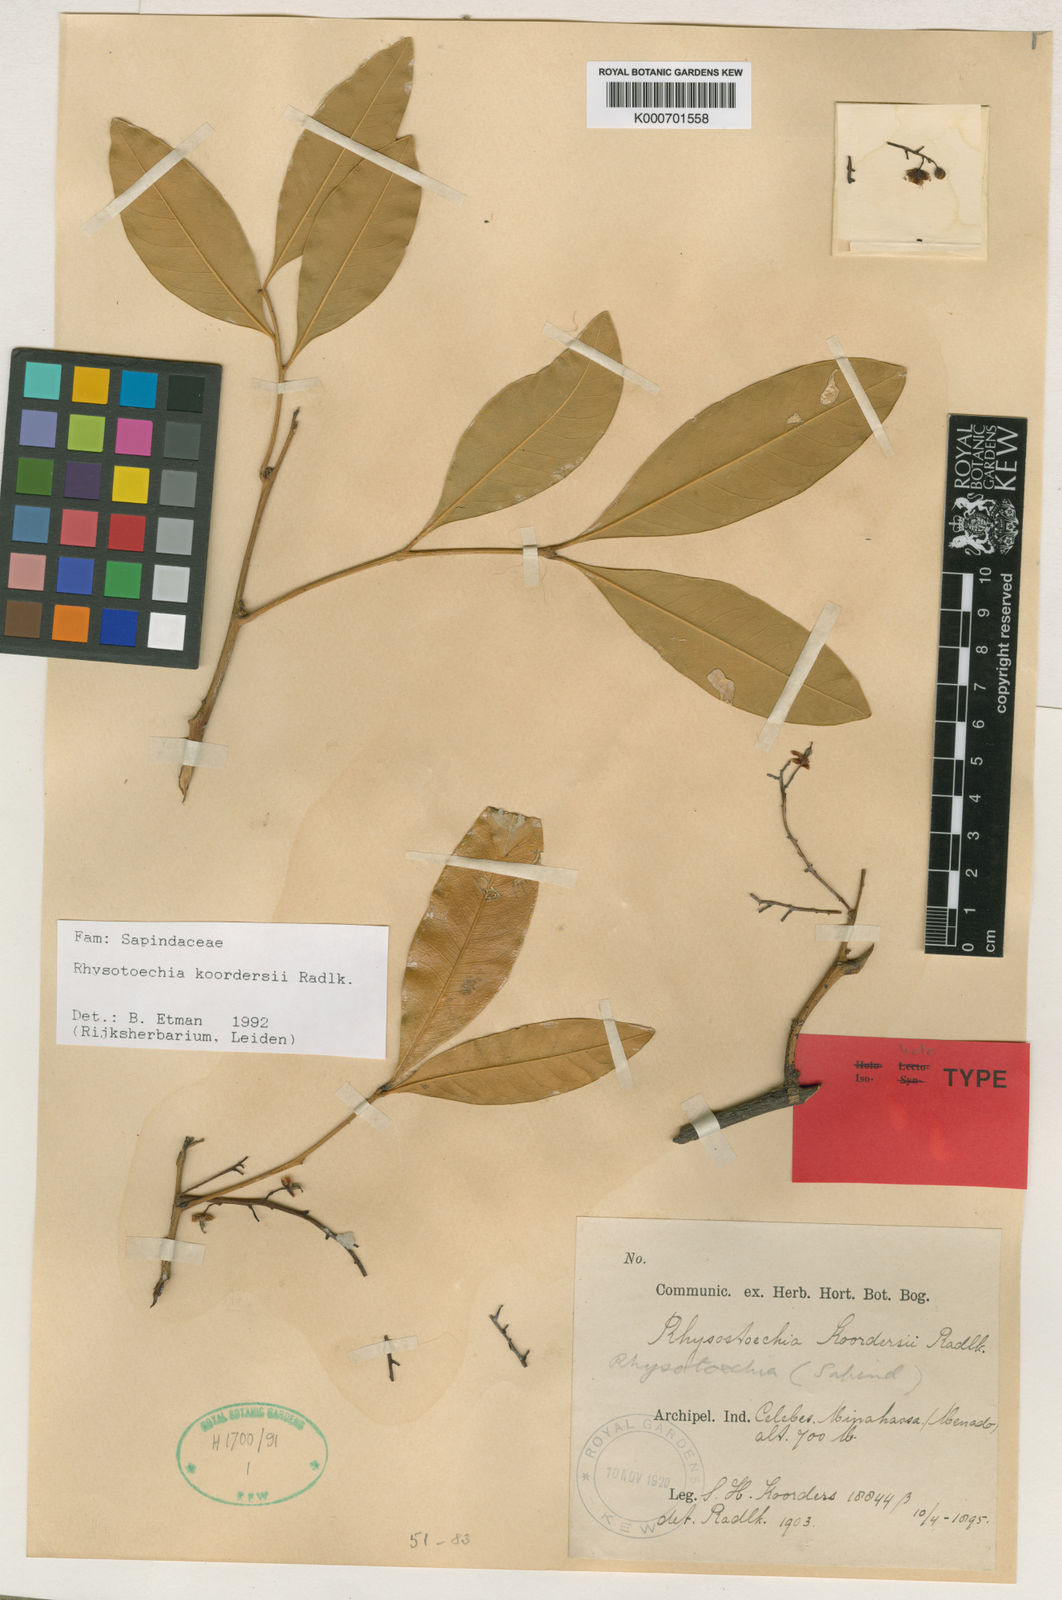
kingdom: Plantae
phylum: Tracheophyta
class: Magnoliopsida
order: Sapindales
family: Sapindaceae
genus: Rhysotoechia
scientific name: Rhysotoechia koordersii
